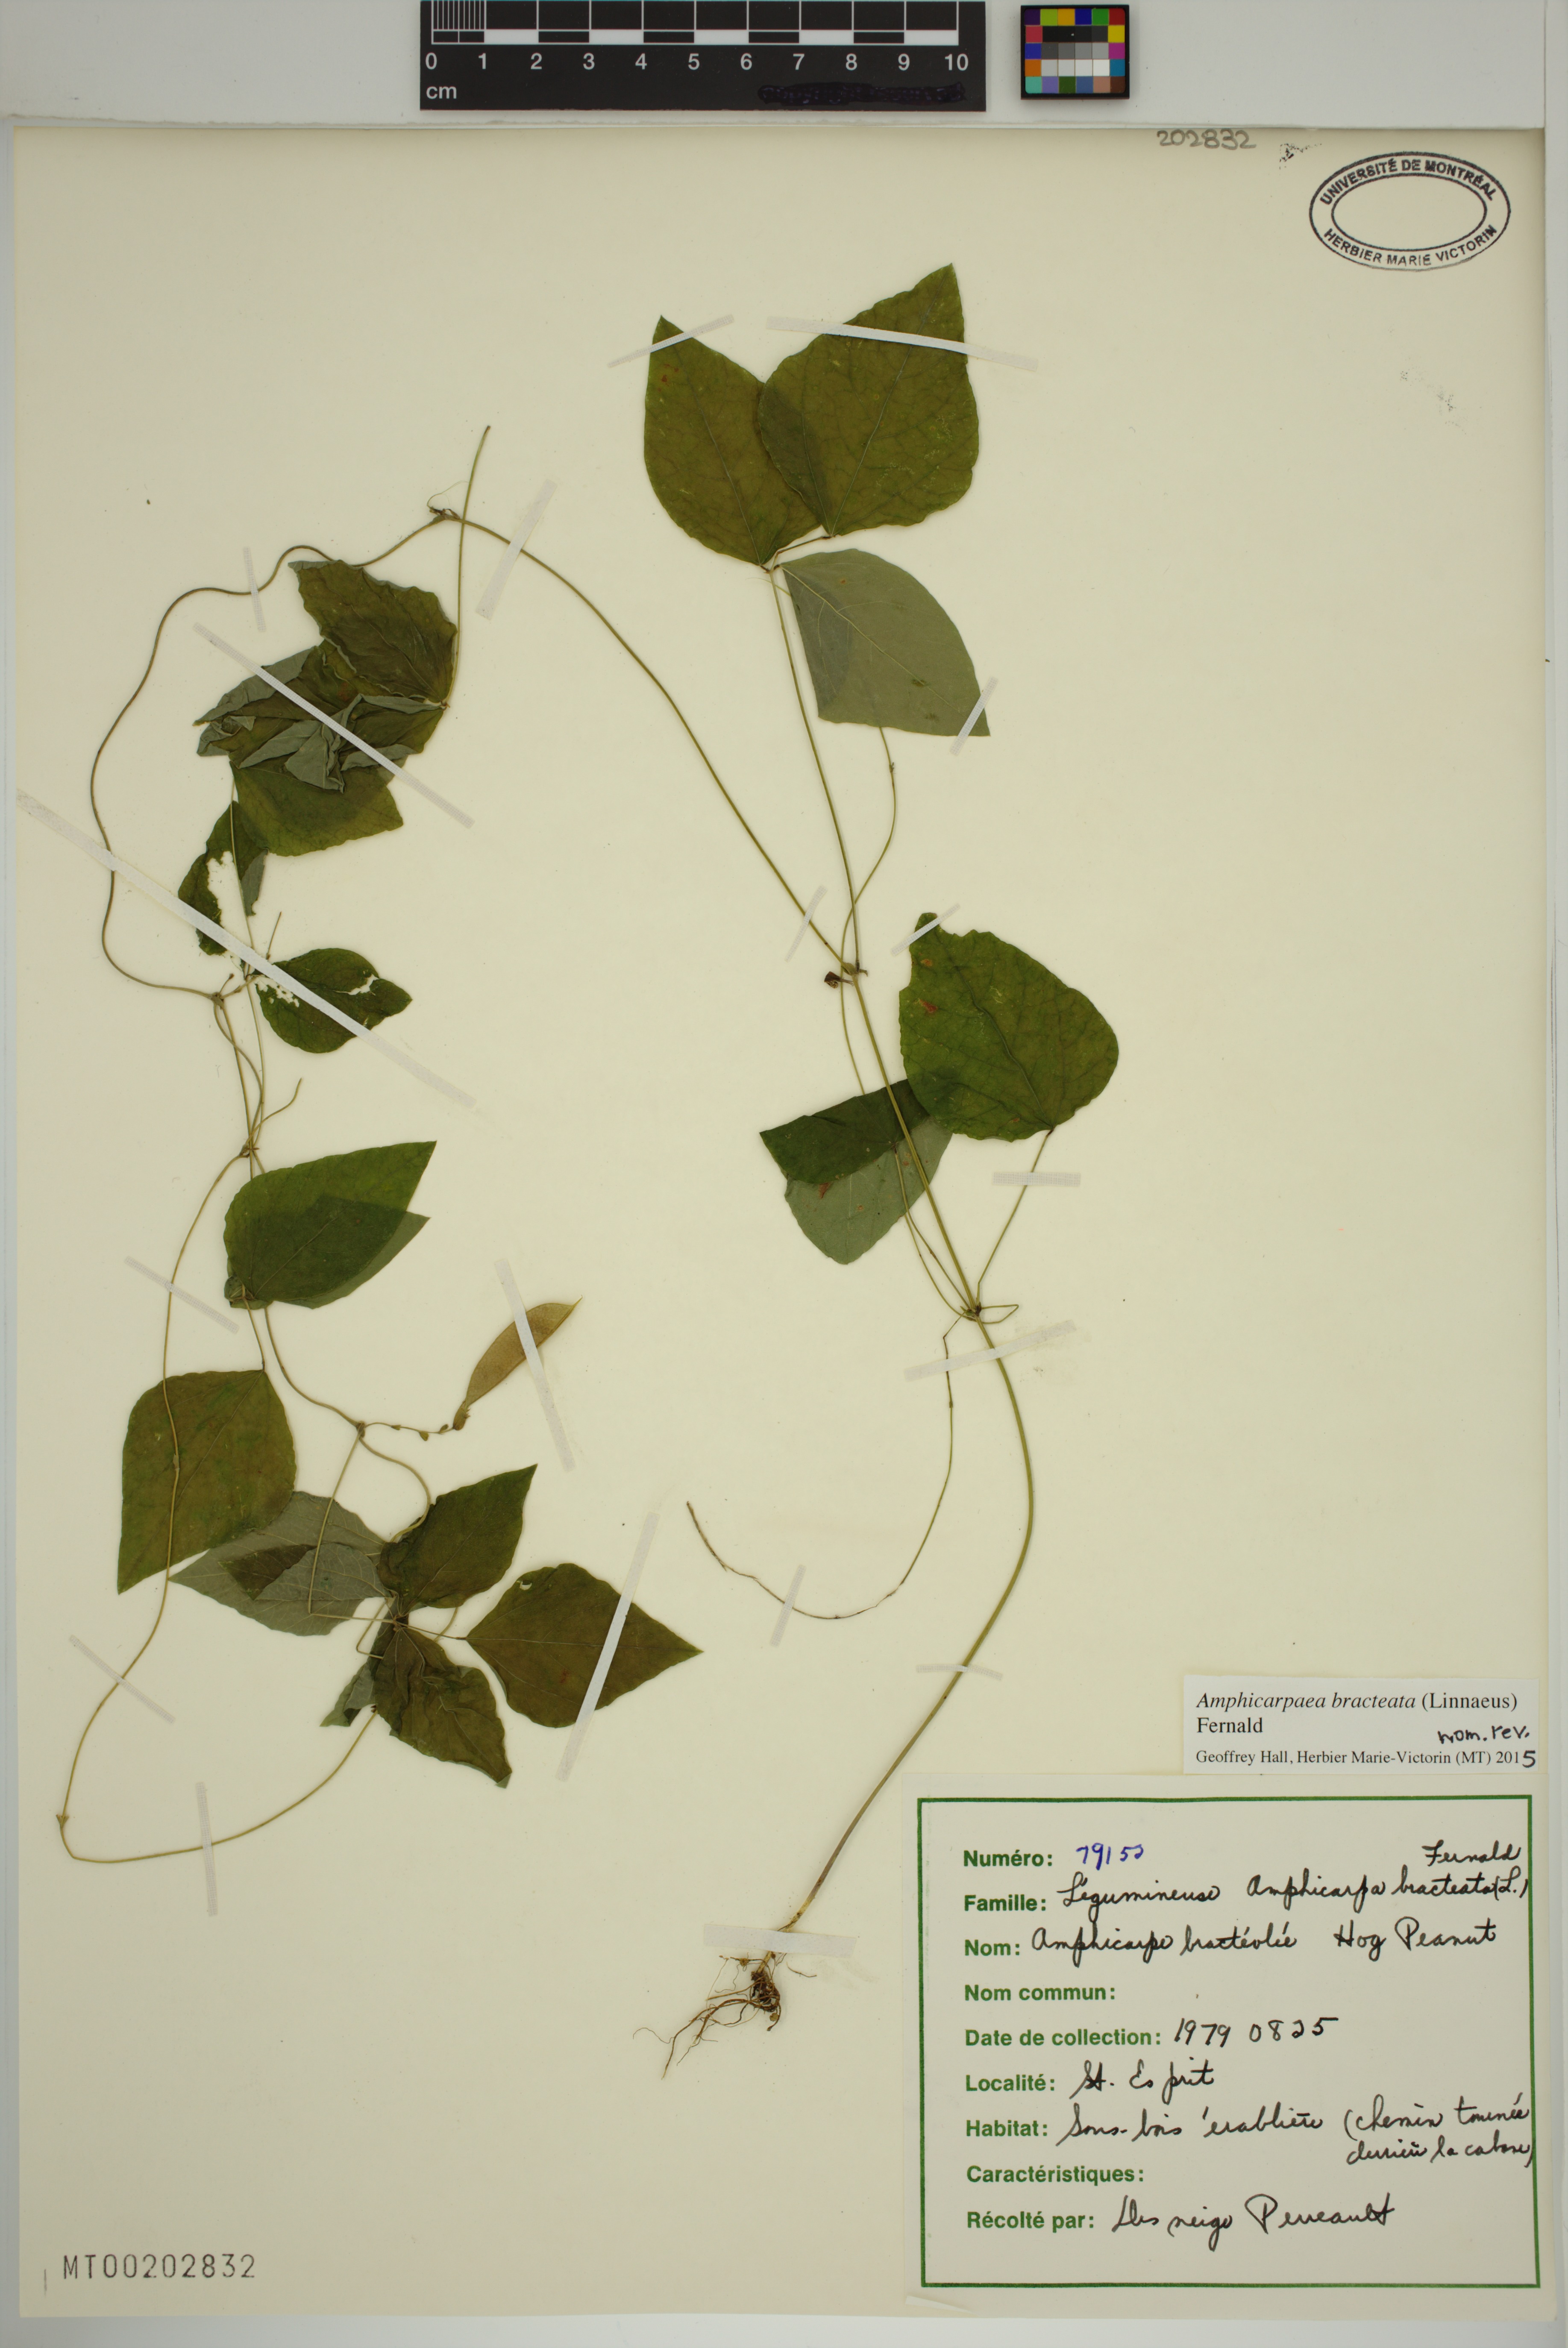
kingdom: Plantae
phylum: Tracheophyta
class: Magnoliopsida
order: Fabales
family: Fabaceae
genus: Amphicarpaea
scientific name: Amphicarpaea bracteata
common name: American hog peanut
